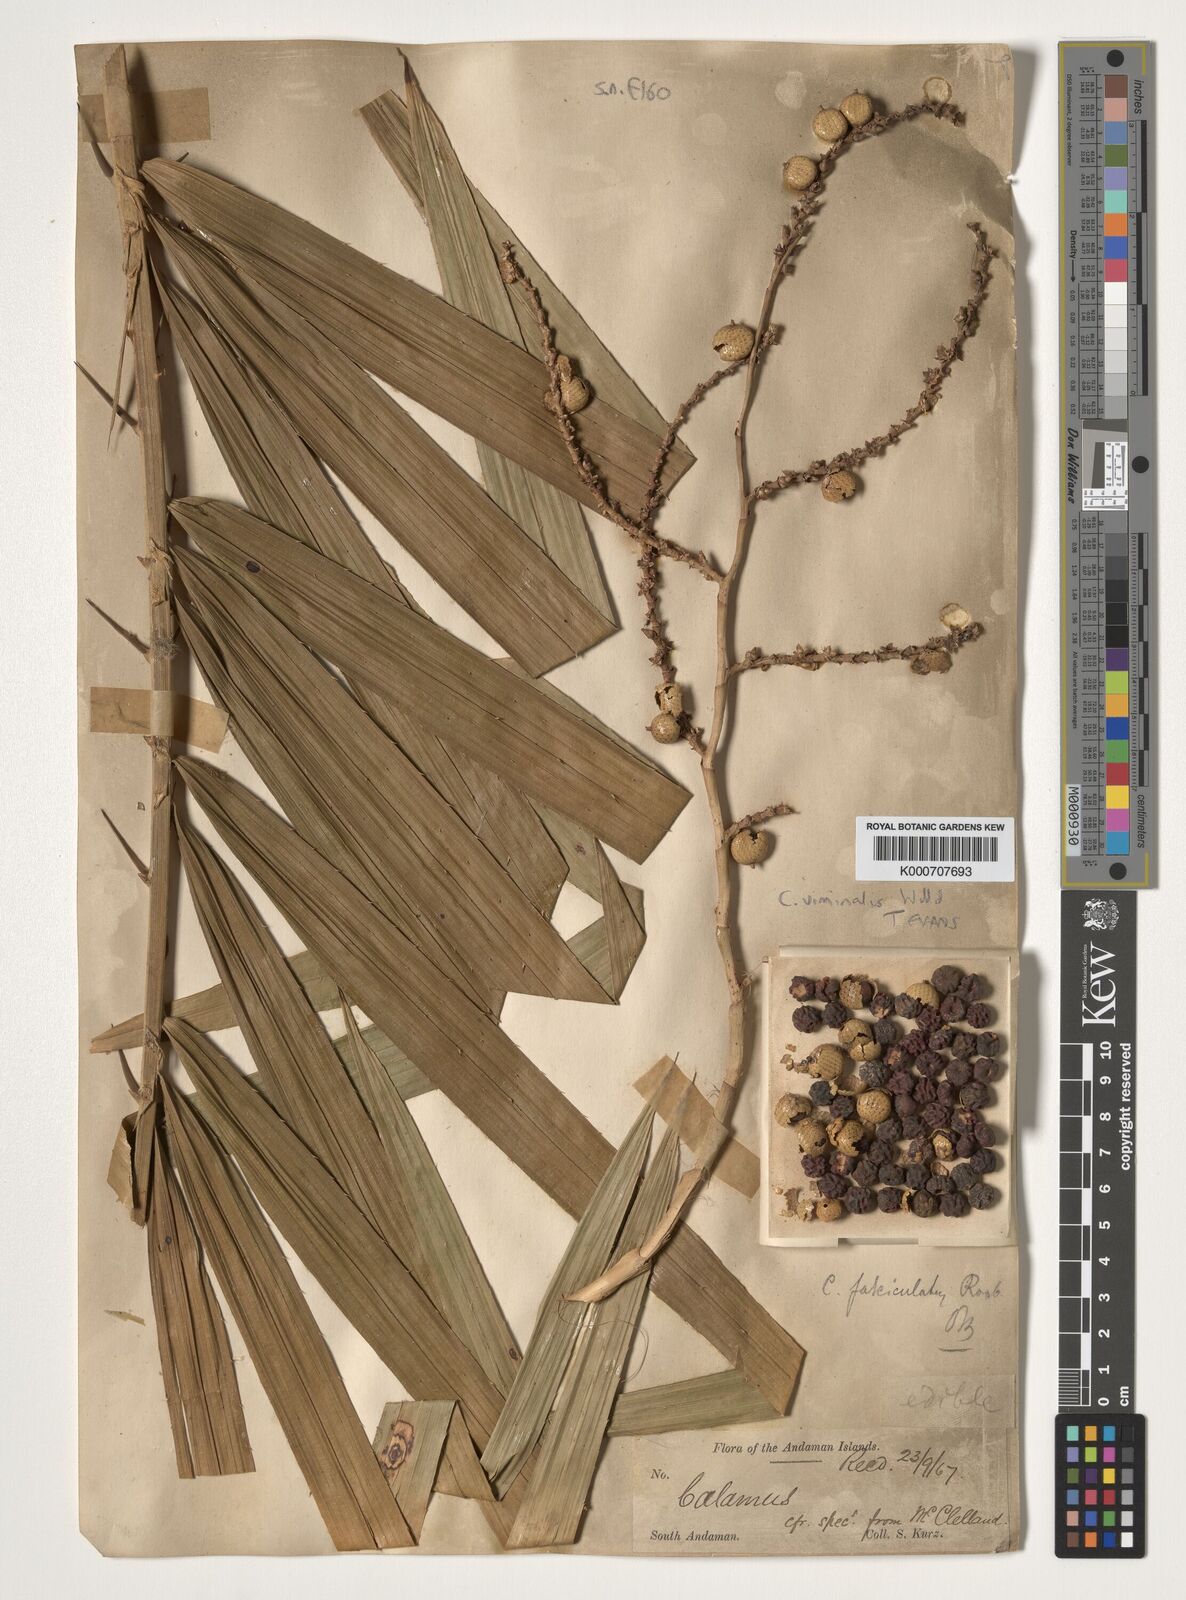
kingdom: Plantae
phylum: Tracheophyta
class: Liliopsida
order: Arecales
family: Arecaceae
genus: Calamus
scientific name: Calamus viminalis
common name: Osier-like rattan palm
